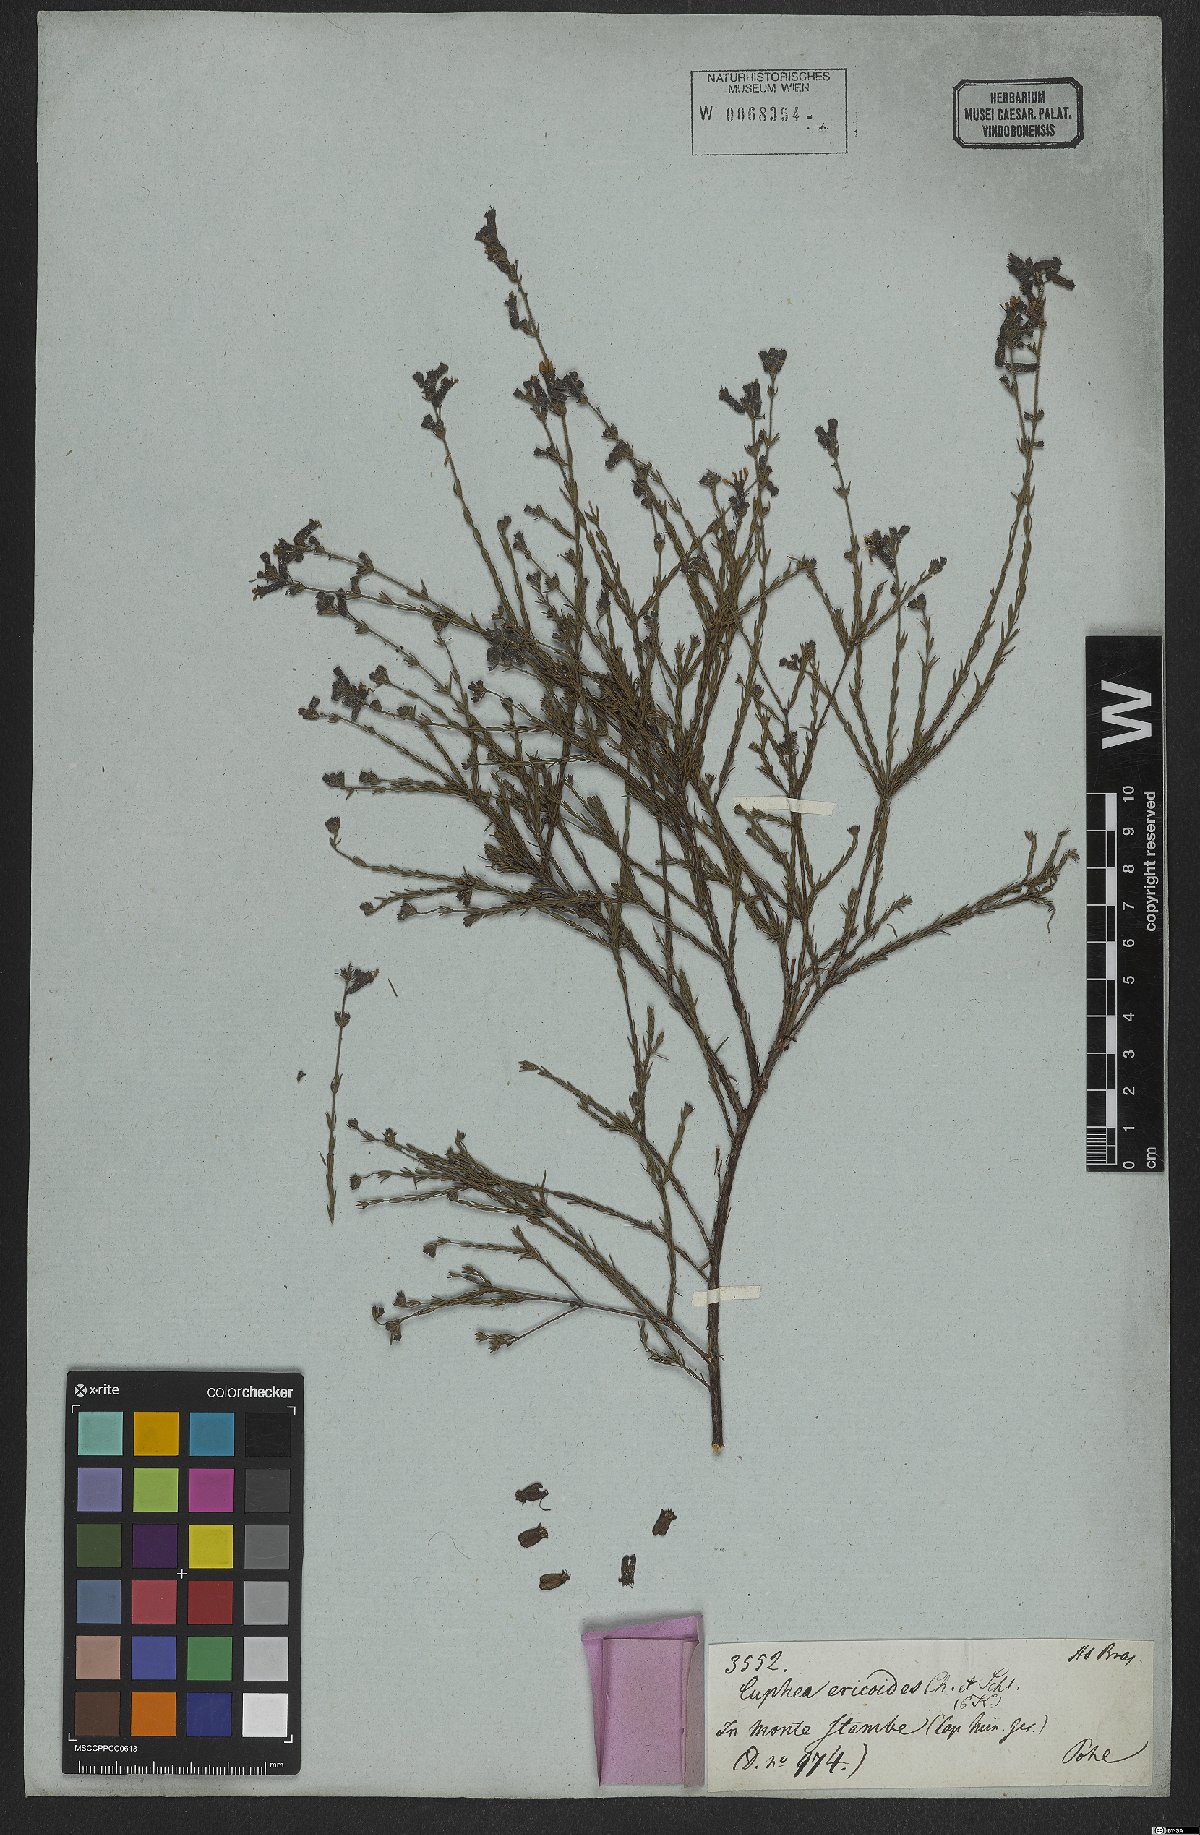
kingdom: Plantae
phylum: Tracheophyta
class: Magnoliopsida
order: Myrtales
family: Lythraceae
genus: Cuphea
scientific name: Cuphea ericoides
